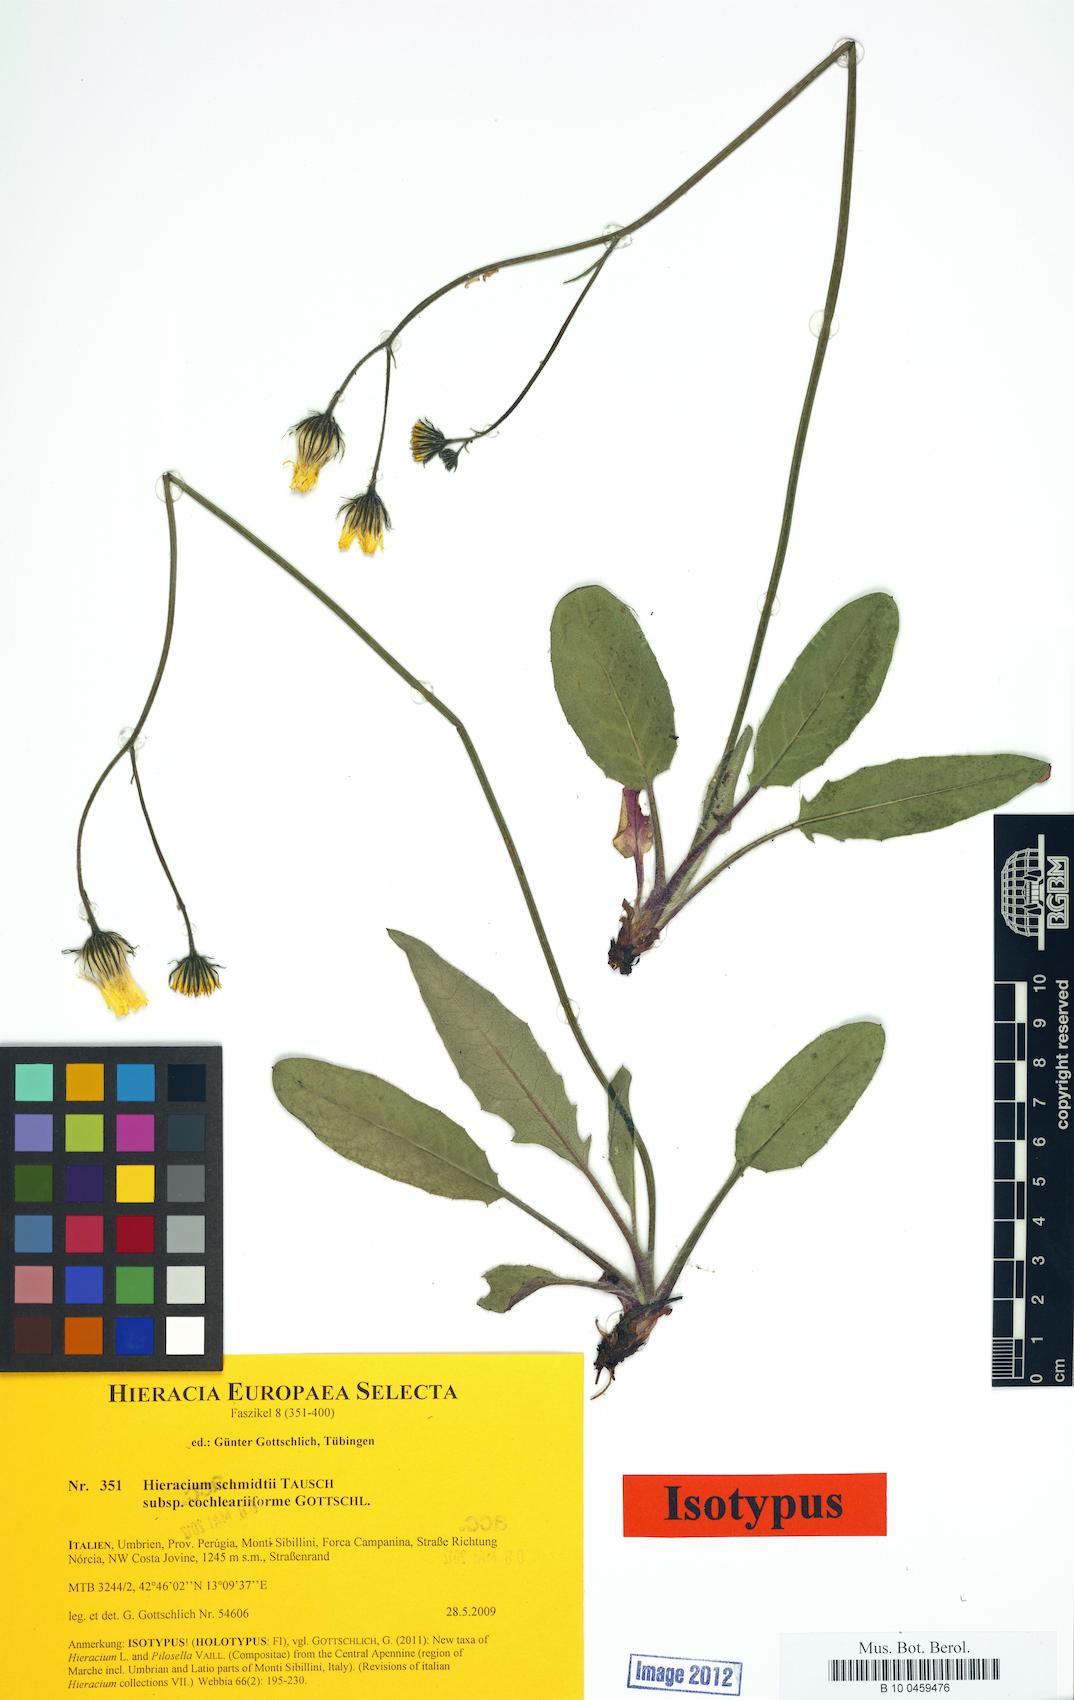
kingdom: Plantae
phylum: Tracheophyta
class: Magnoliopsida
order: Asterales
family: Asteraceae
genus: Hieracium
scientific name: Hieracium schmidtii
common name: Schmidt's hawkweed
